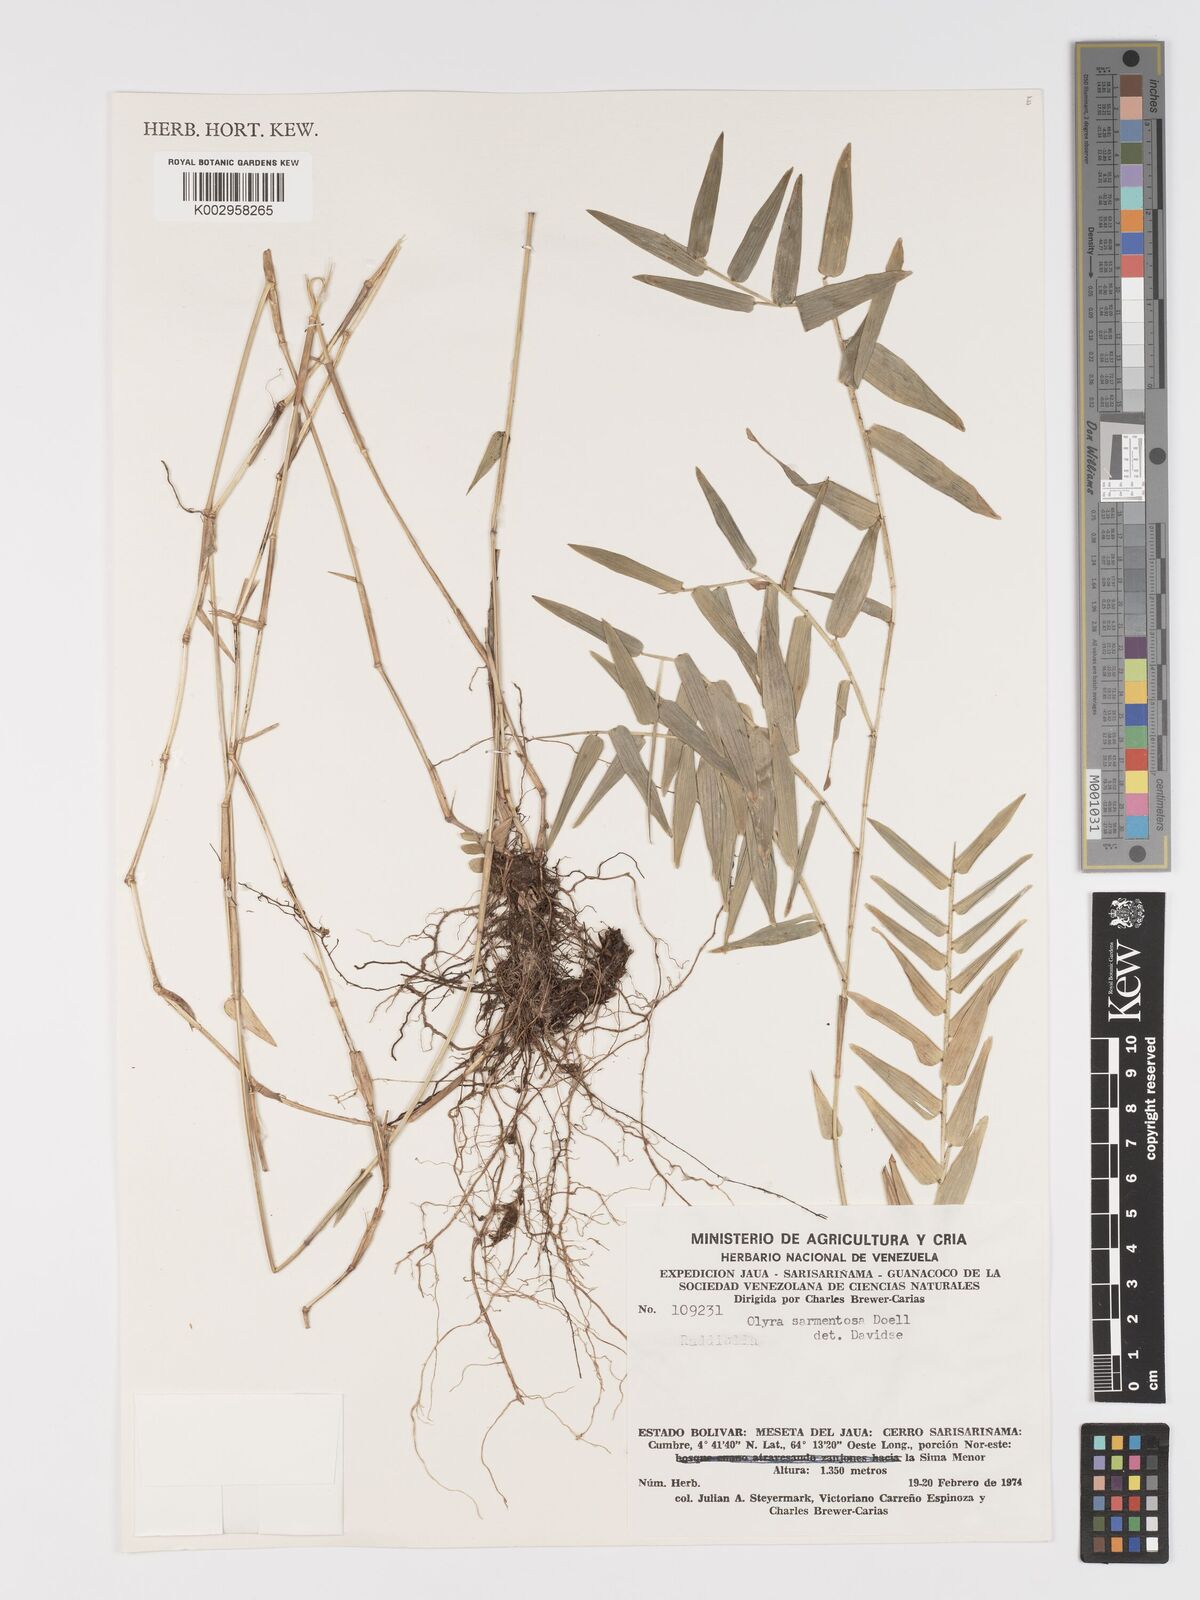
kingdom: Plantae
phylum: Tracheophyta
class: Liliopsida
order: Poales
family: Poaceae
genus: Parodiolyra
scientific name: Parodiolyra lateralis
